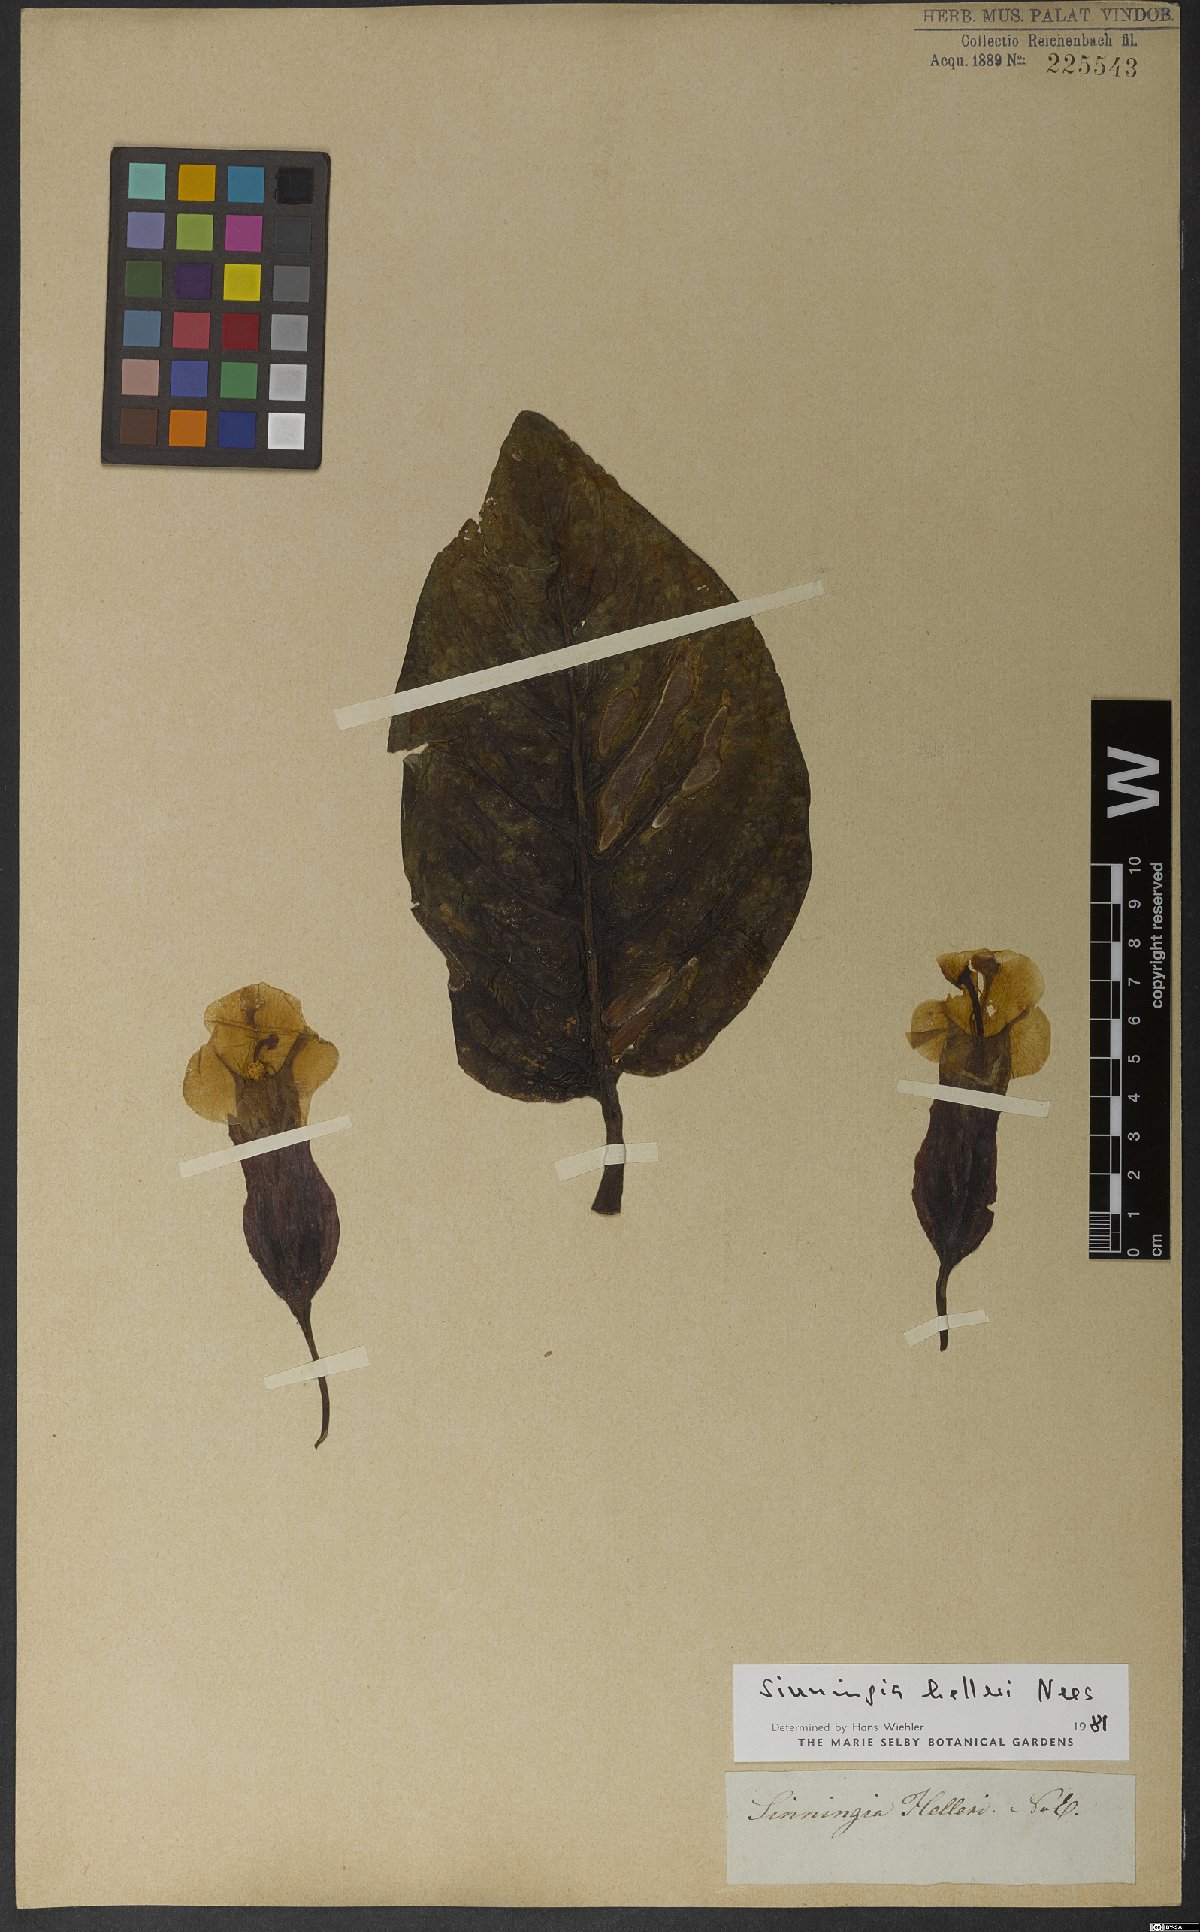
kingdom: Plantae
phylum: Tracheophyta
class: Magnoliopsida
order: Lamiales
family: Gesneriaceae
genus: Sinningia
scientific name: Sinningia helleri
